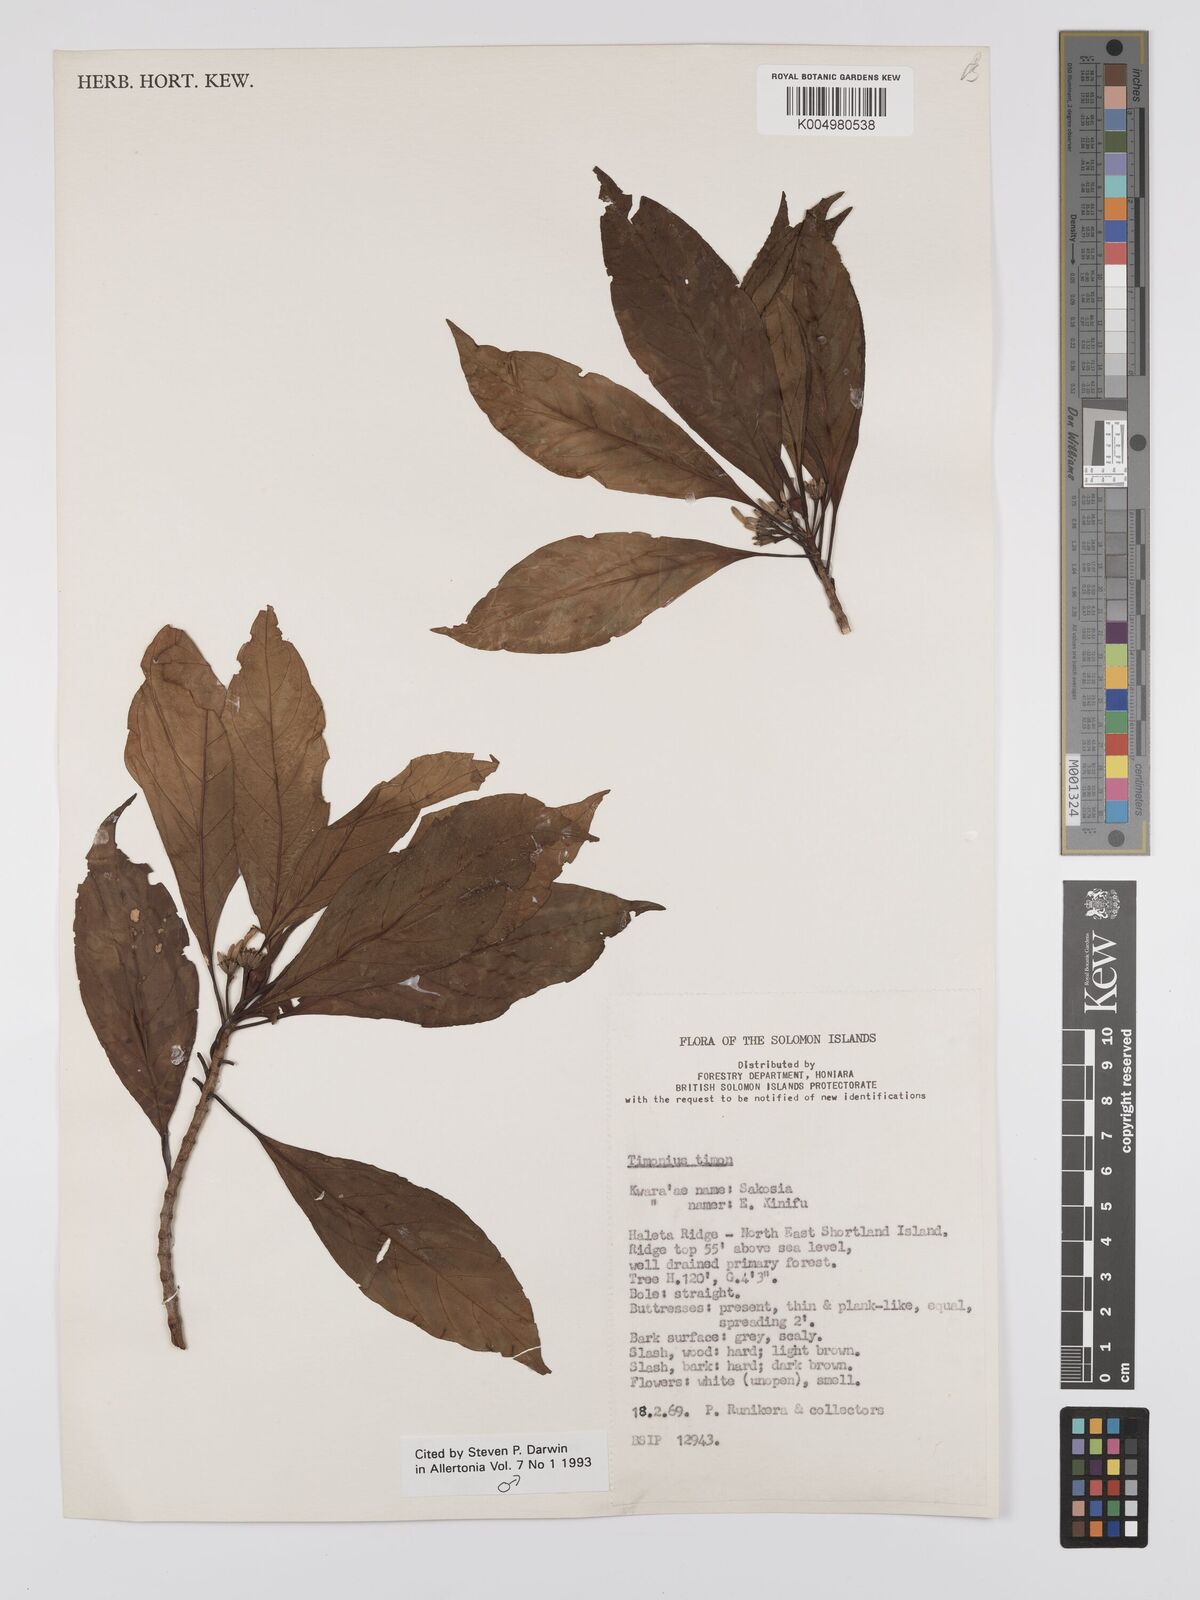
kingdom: Plantae
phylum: Tracheophyta
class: Magnoliopsida
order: Gentianales
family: Rubiaceae
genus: Timonius
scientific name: Timonius timon
